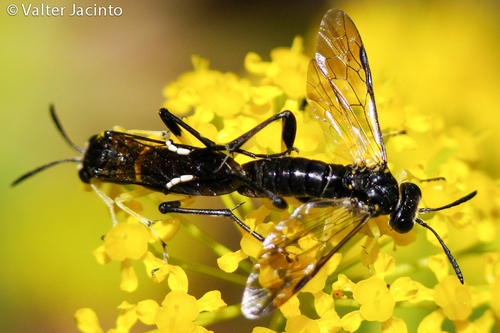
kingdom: Animalia
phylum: Arthropoda
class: Insecta
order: Hymenoptera
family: Tenthredinidae
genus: Macrophya
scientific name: Macrophya montana
